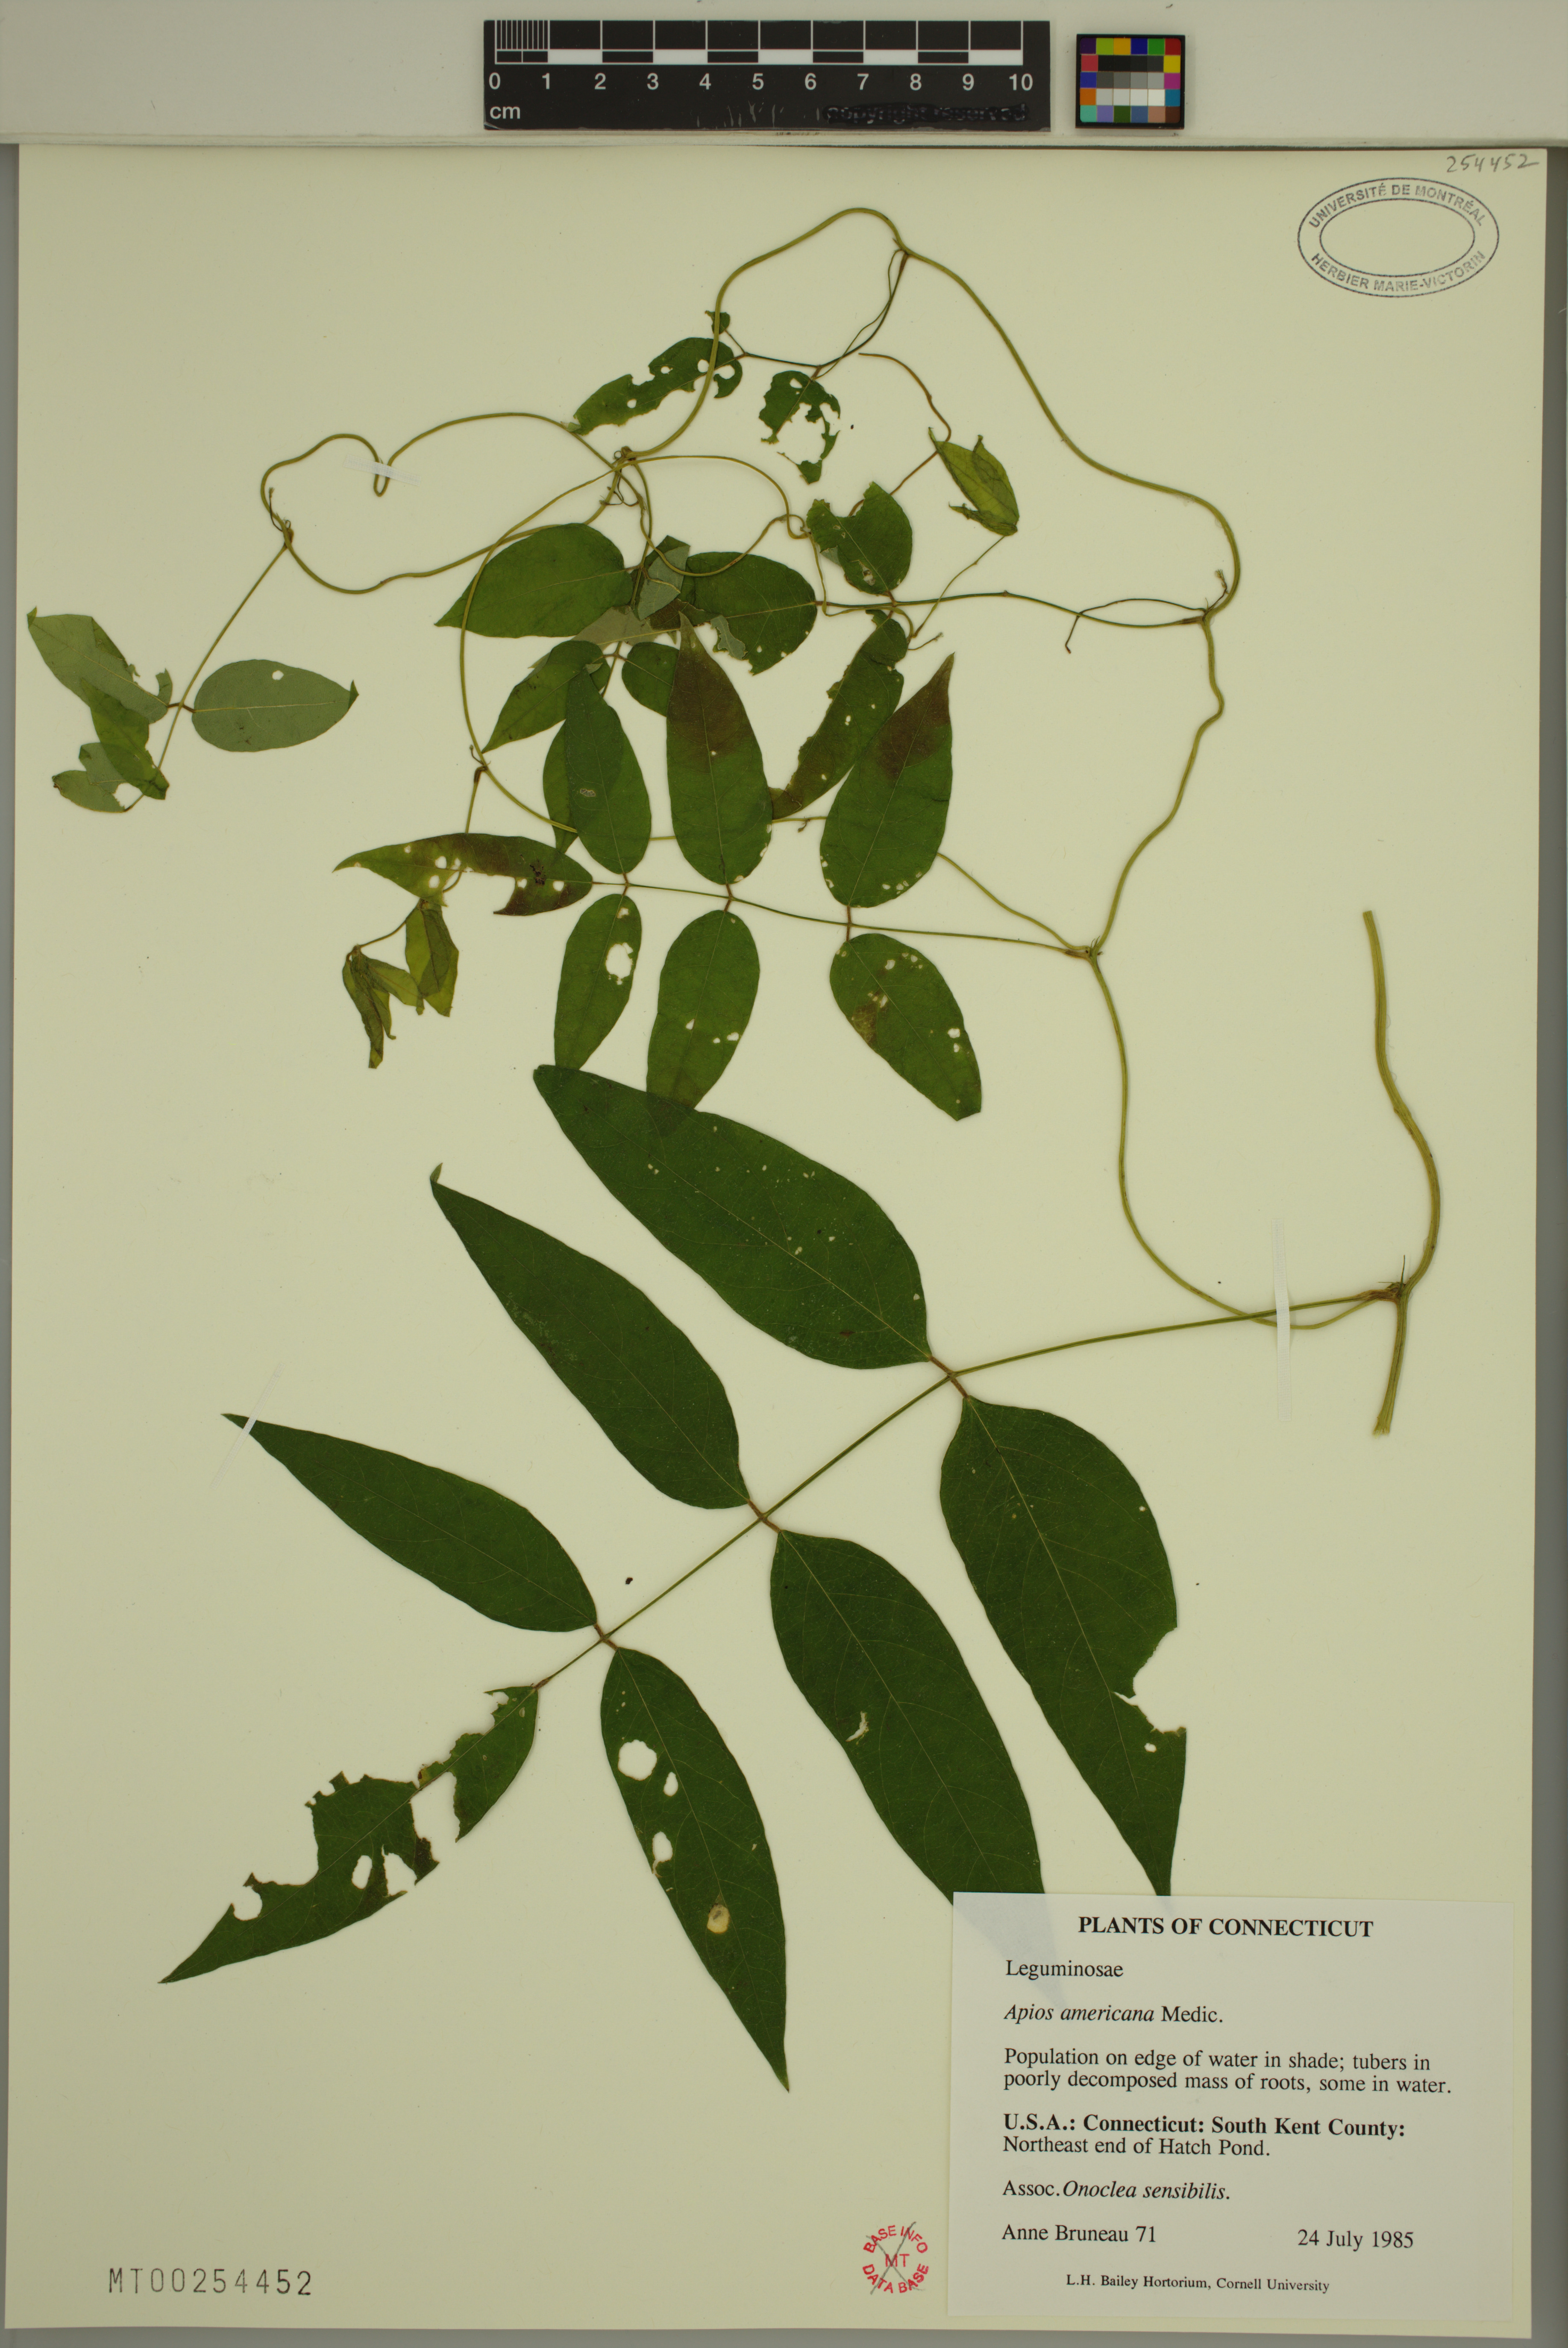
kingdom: Plantae
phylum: Tracheophyta
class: Magnoliopsida
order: Fabales
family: Fabaceae
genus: Apios
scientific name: Apios americana
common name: American potato-bean
